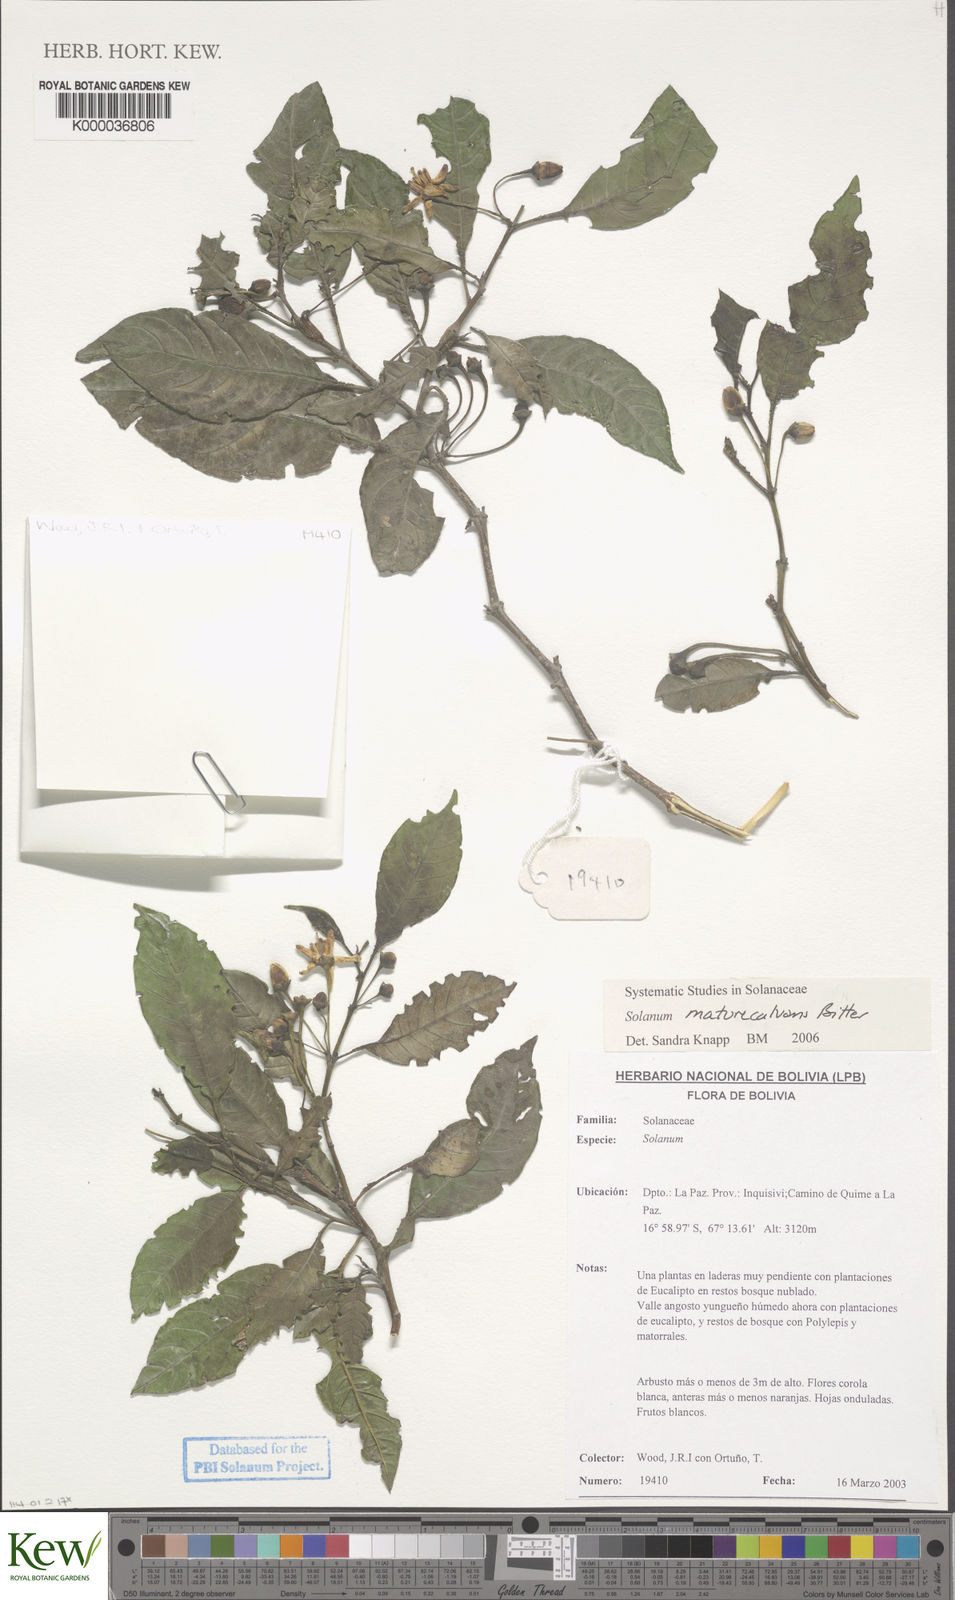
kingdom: Plantae
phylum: Tracheophyta
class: Magnoliopsida
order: Solanales
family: Solanaceae
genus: Solanum
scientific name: Solanum maturecalvans
